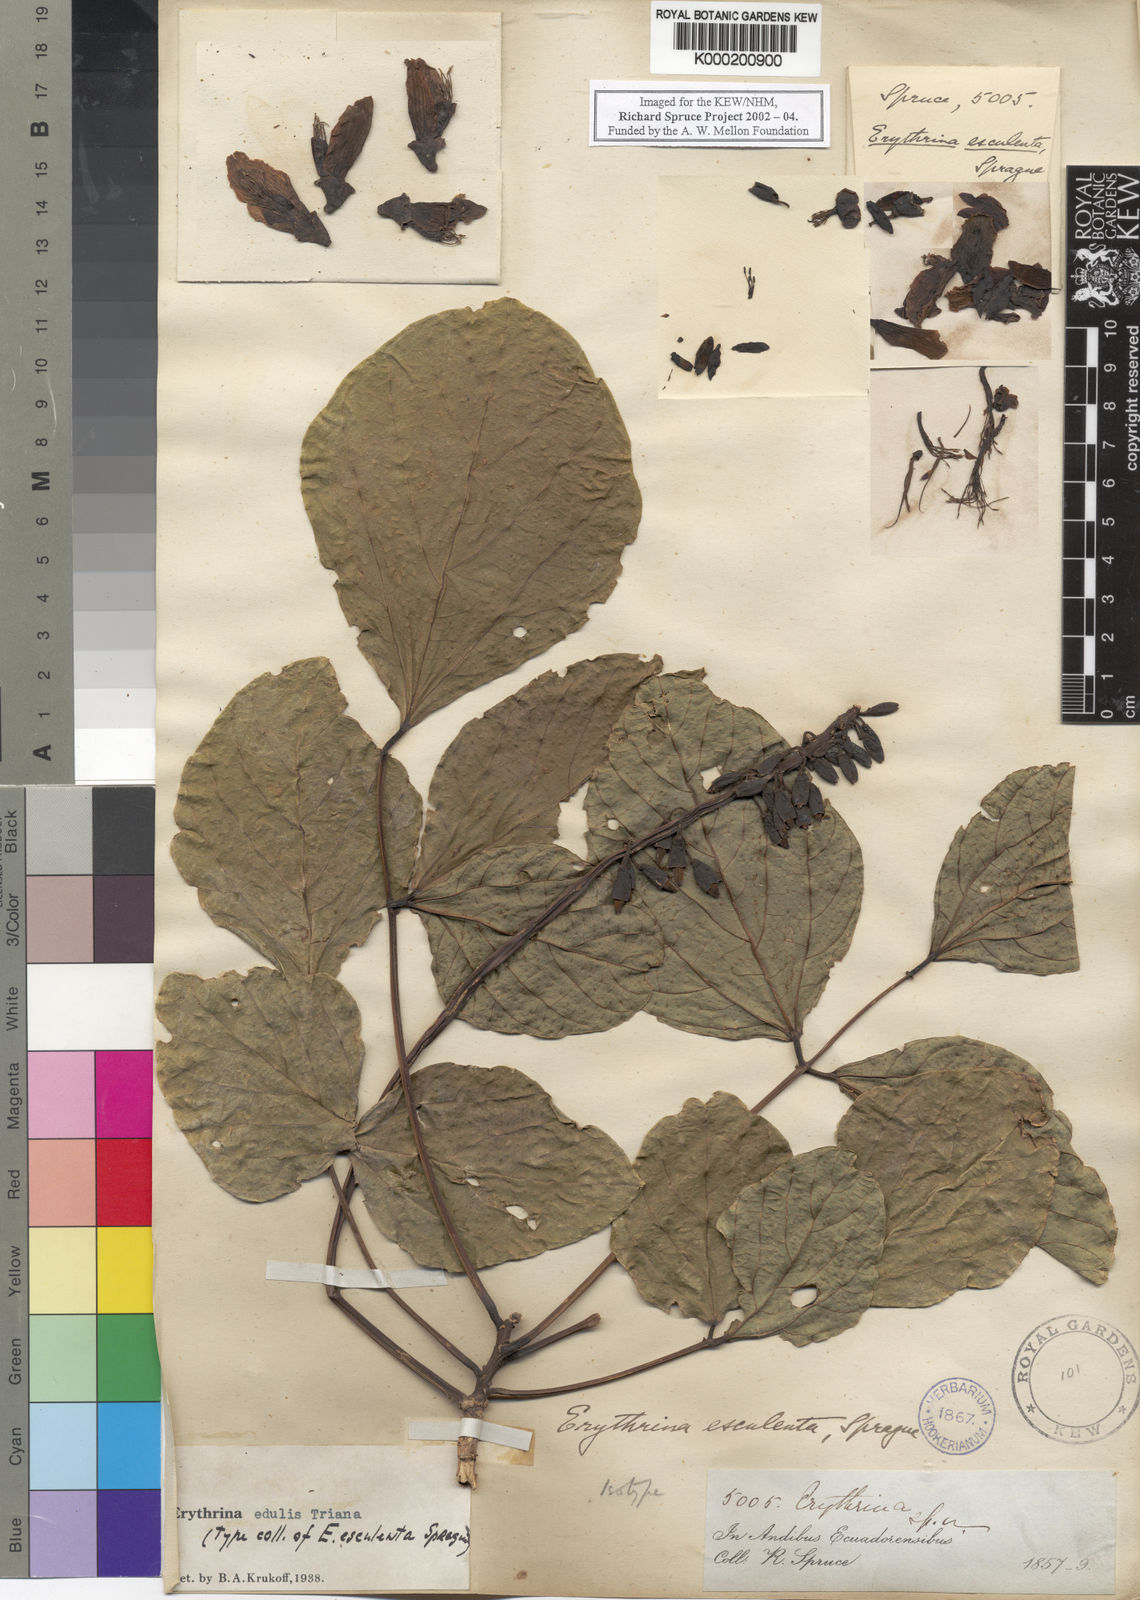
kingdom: Plantae
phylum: Tracheophyta
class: Magnoliopsida
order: Fabales
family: Fabaceae
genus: Erythrina
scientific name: Erythrina
